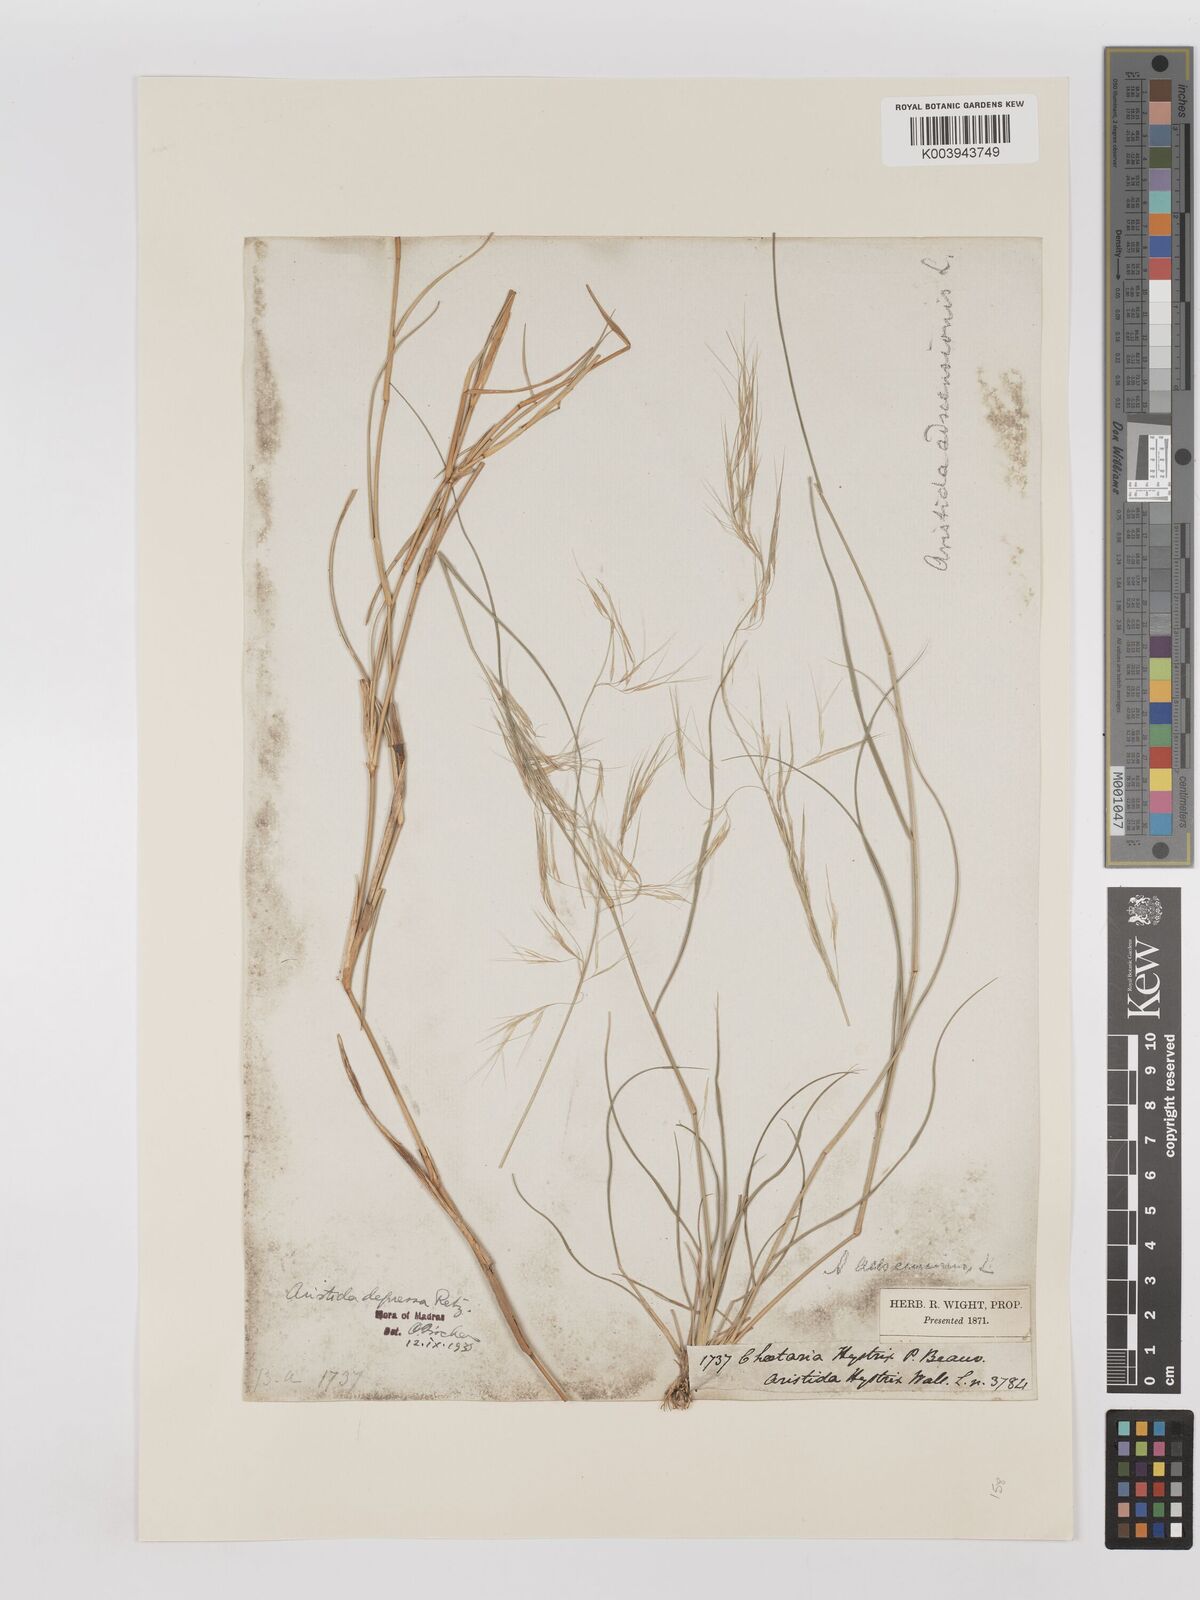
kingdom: Plantae
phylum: Tracheophyta
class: Liliopsida
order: Poales
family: Poaceae
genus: Aristida
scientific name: Aristida adscensionis
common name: Sixweeks threeawn
